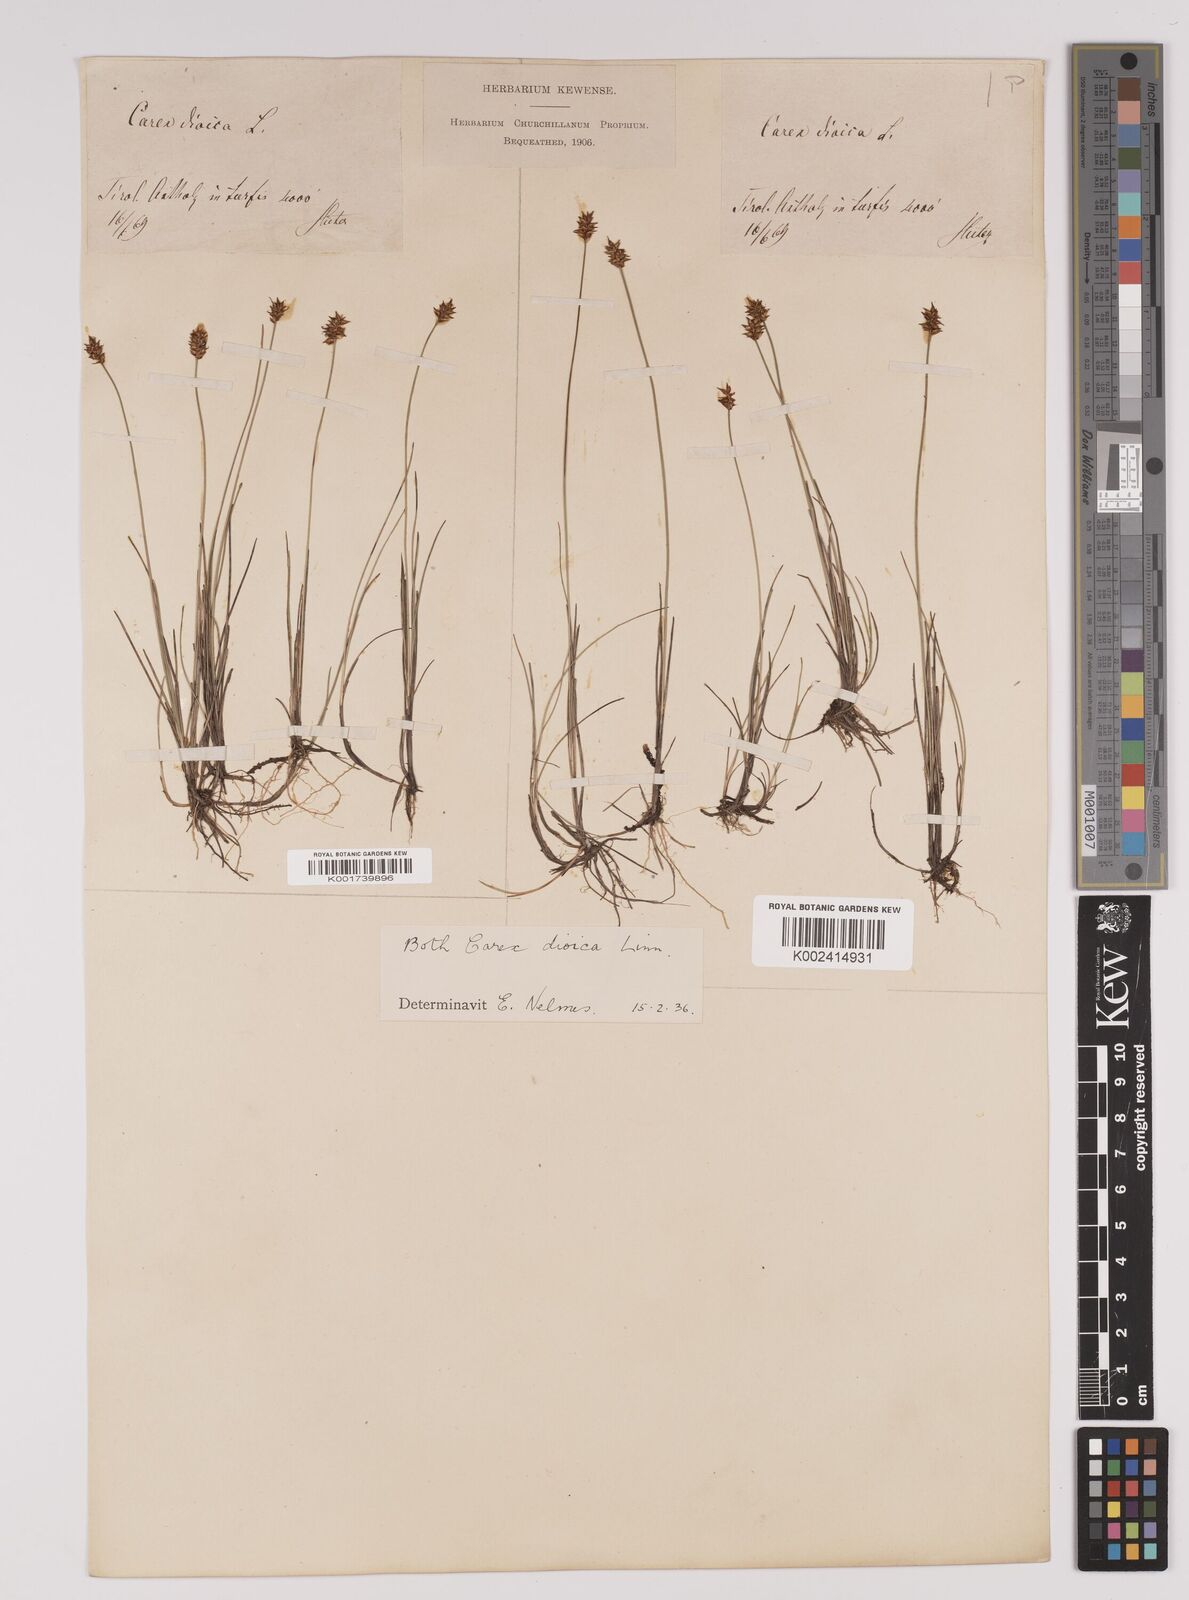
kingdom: Plantae
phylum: Tracheophyta
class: Liliopsida
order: Poales
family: Cyperaceae
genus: Carex
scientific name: Carex dioica
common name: Dioecious sedge
